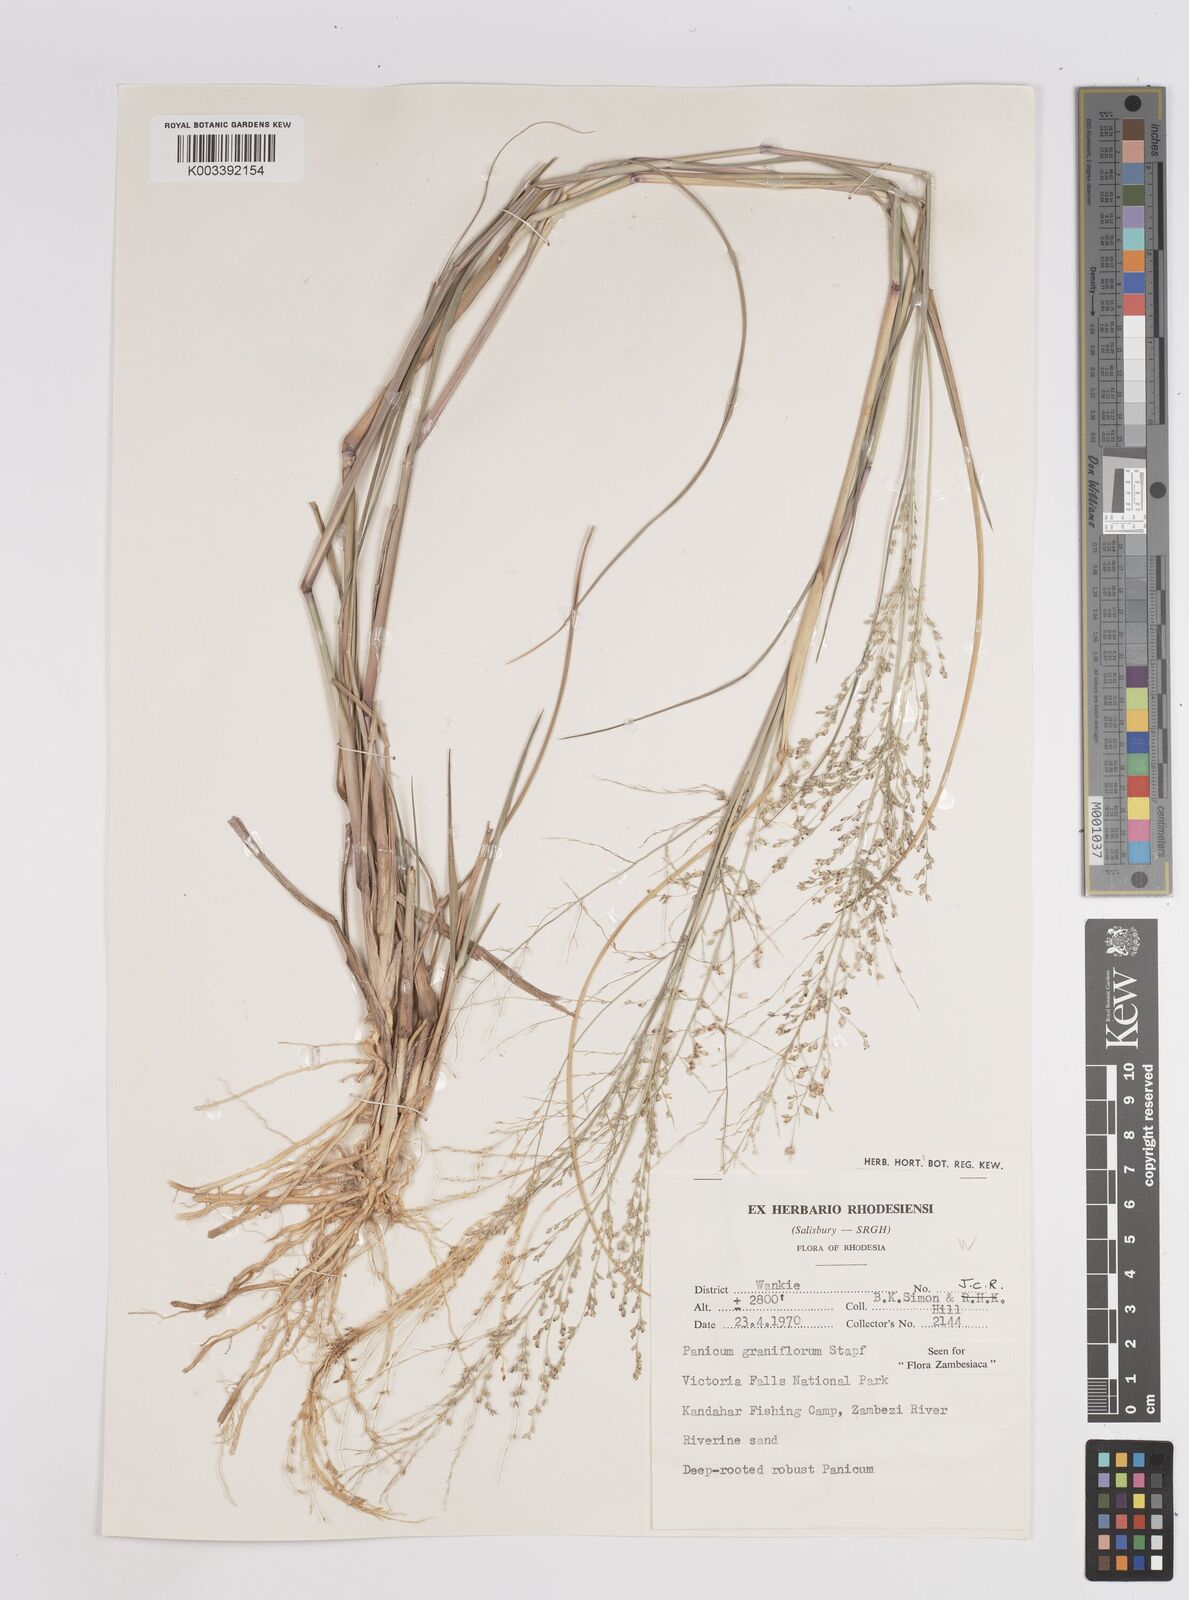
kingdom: Plantae
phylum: Tracheophyta
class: Liliopsida
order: Poales
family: Poaceae
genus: Panicum
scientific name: Panicum graniflorum
